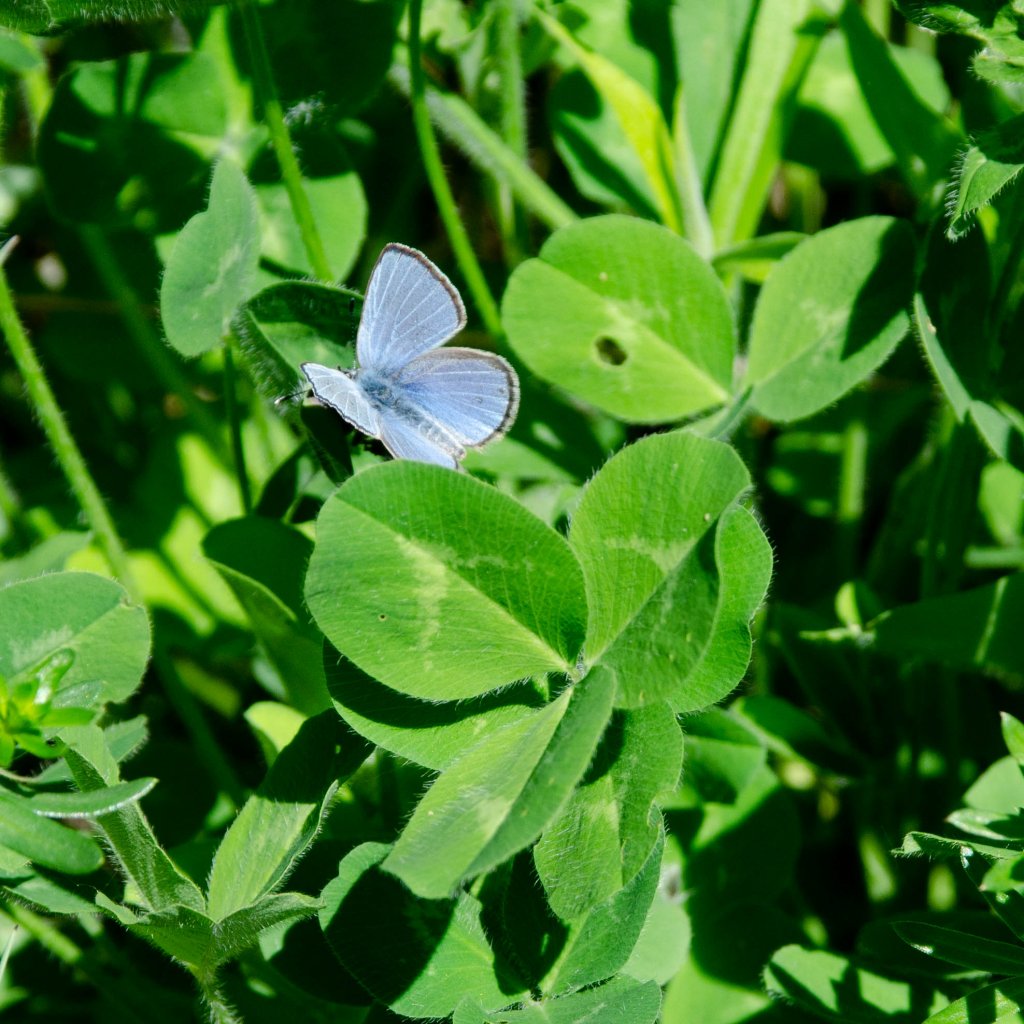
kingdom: Animalia
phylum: Arthropoda
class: Insecta
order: Lepidoptera
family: Lycaenidae
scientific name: Lycaenidae
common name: Gossamerwings
